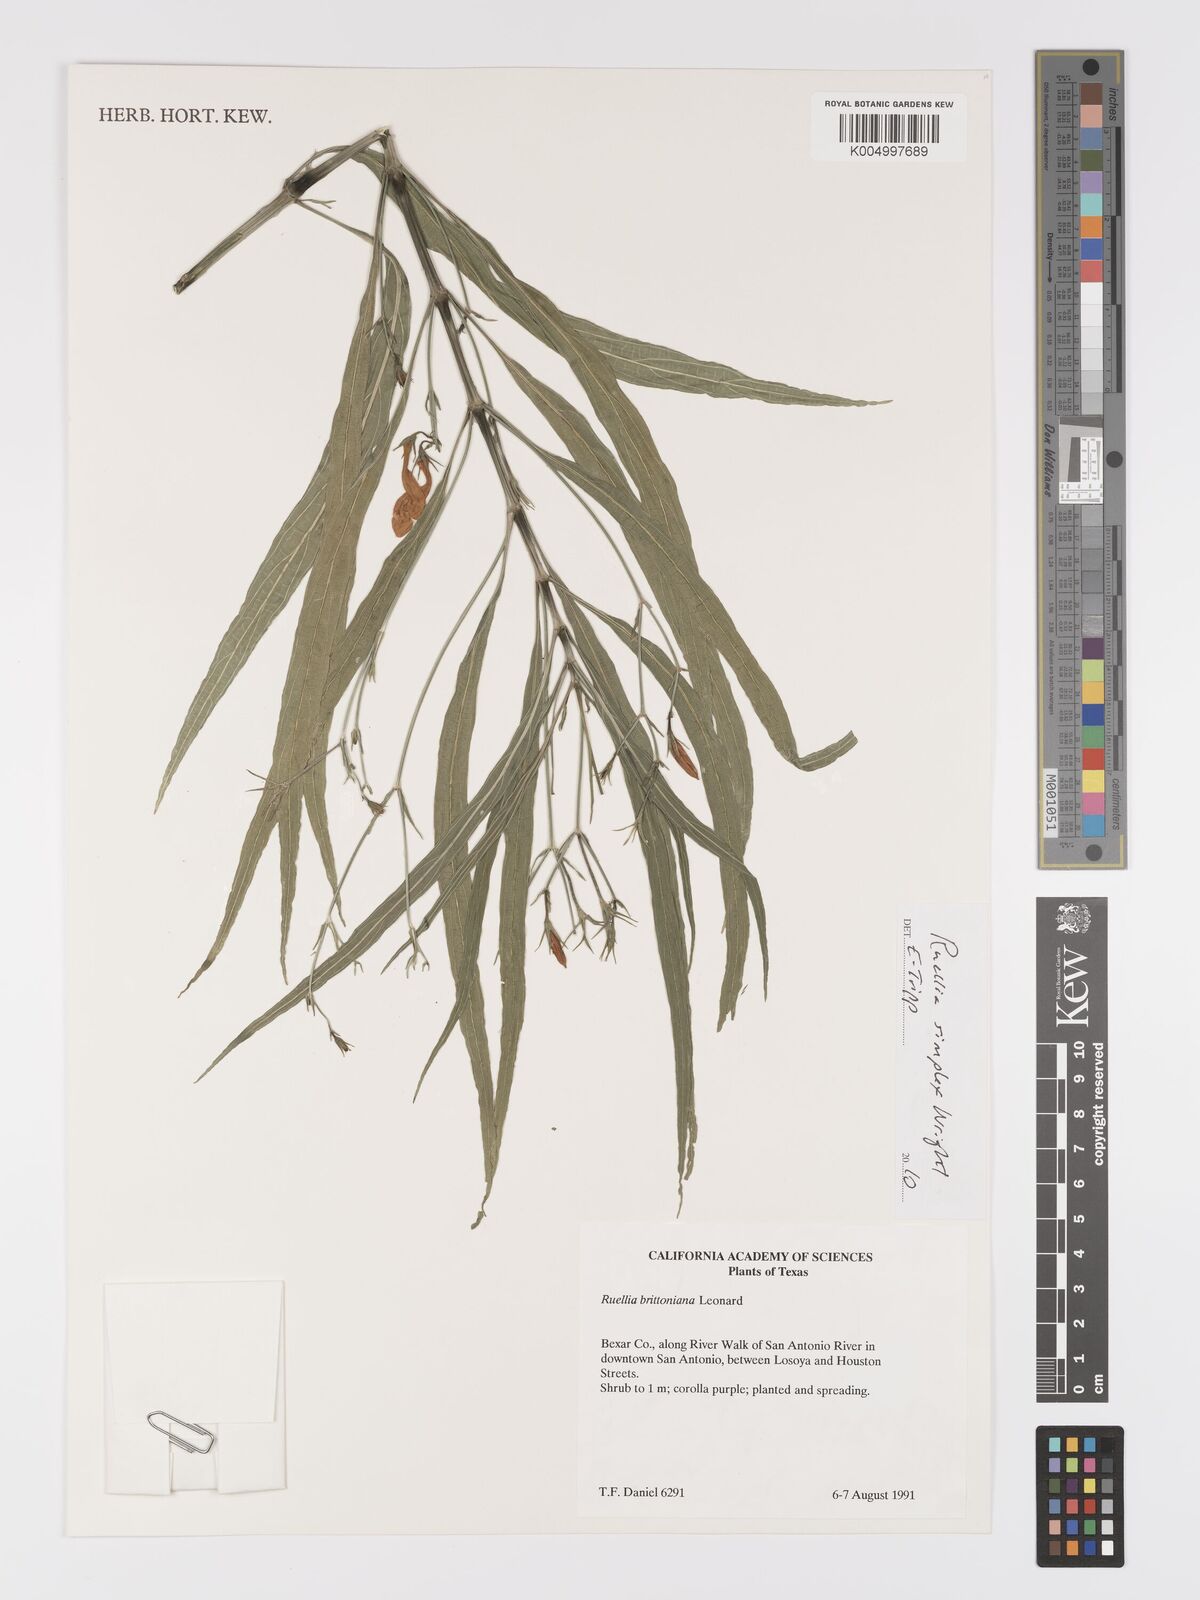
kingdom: Plantae
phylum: Tracheophyta
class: Magnoliopsida
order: Lamiales
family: Acanthaceae
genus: Ruellia
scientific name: Ruellia simplex
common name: Softseed wild petunia
